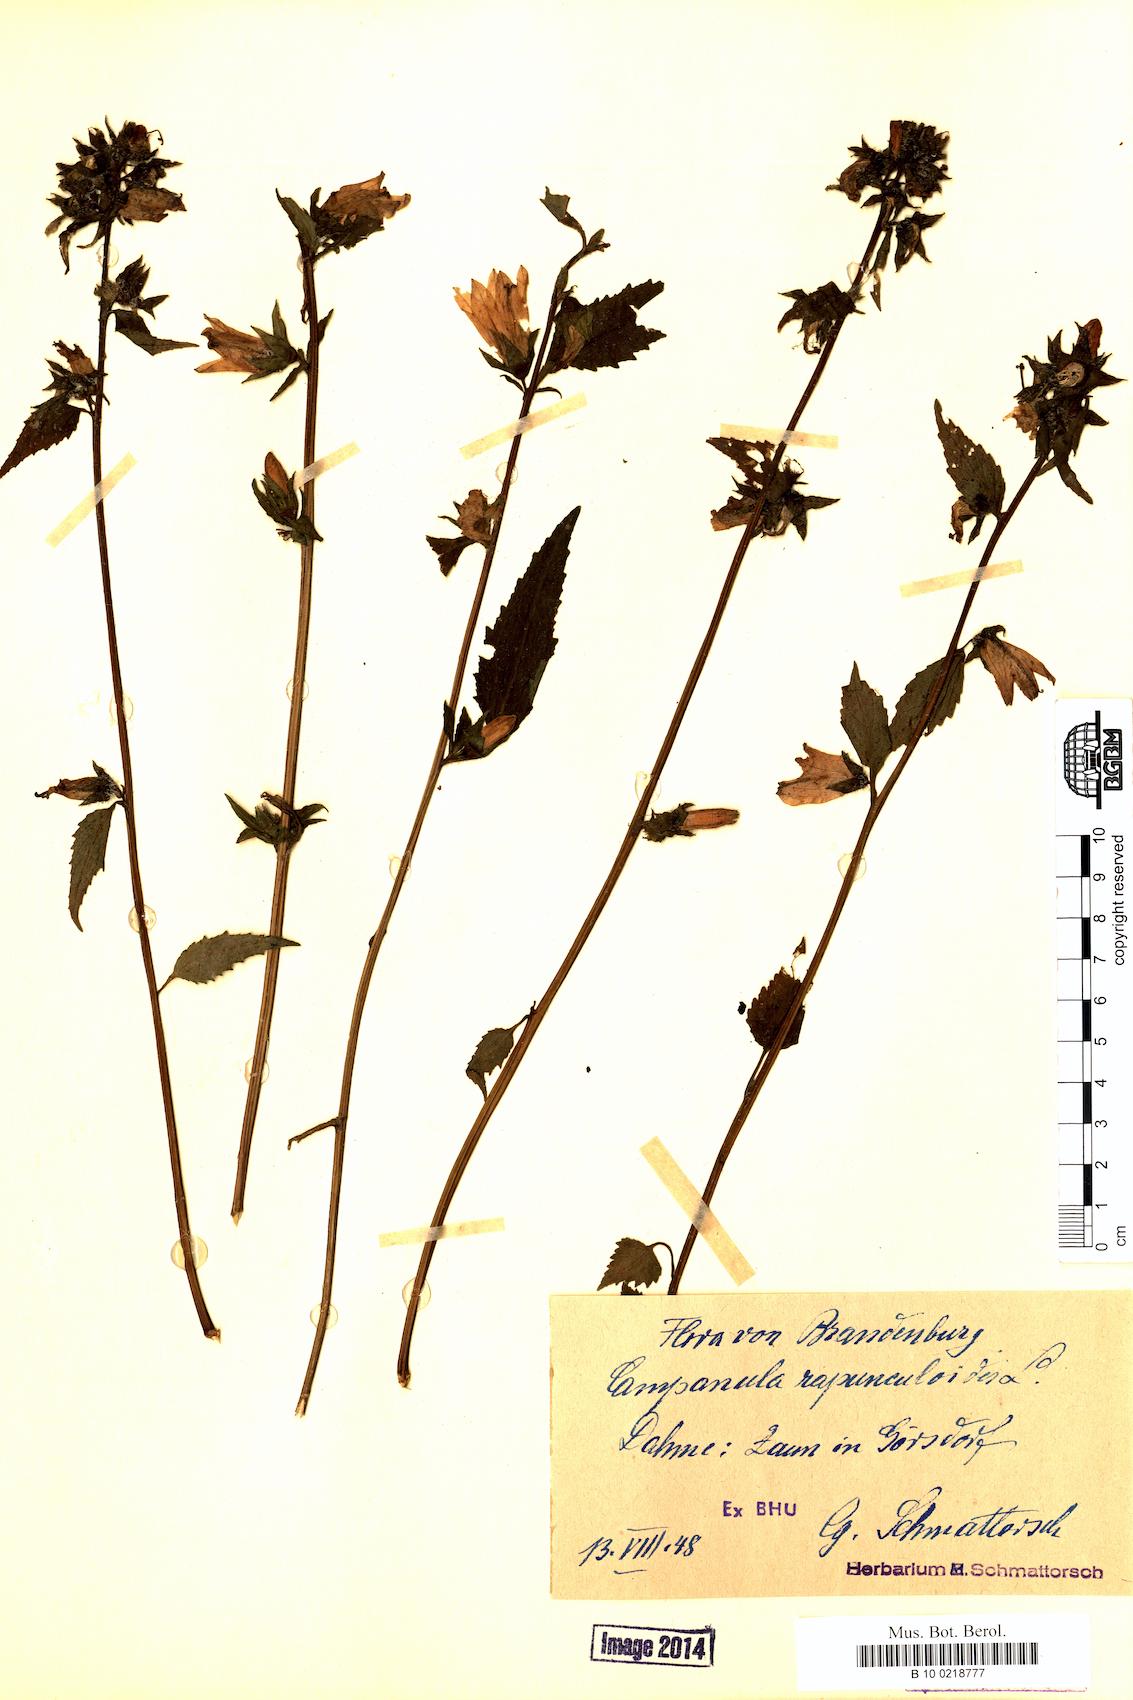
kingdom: Plantae
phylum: Tracheophyta
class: Magnoliopsida
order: Asterales
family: Campanulaceae
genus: Campanula
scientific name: Campanula rapunculoides
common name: Creeping bellflower
